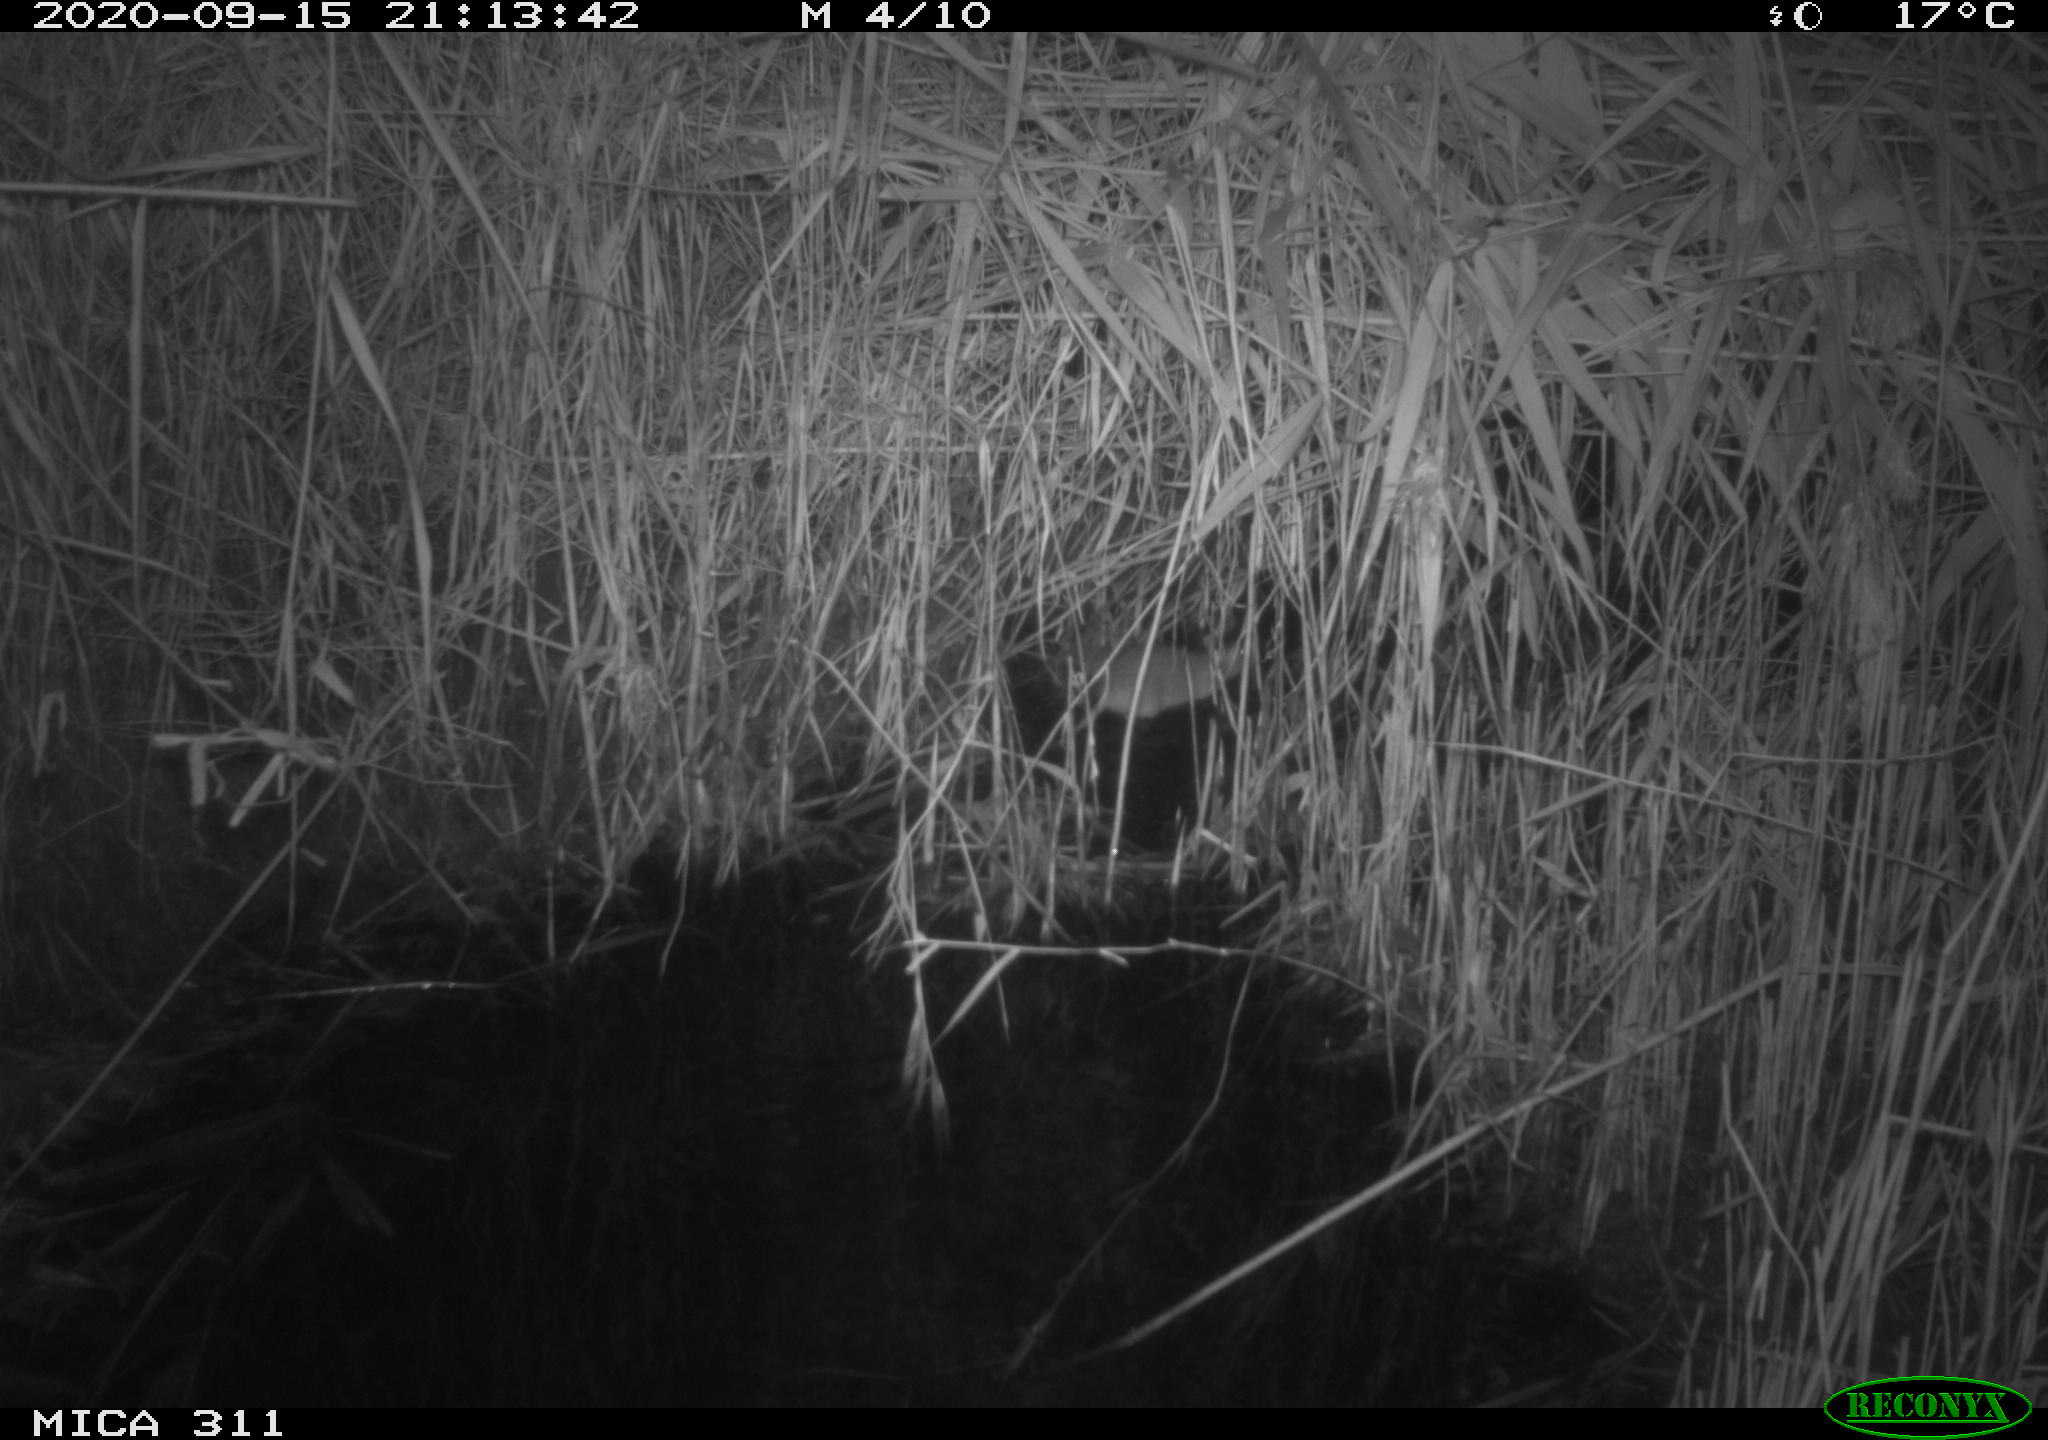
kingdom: Animalia
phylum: Chordata
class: Mammalia
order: Rodentia
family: Muridae
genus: Rattus
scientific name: Rattus norvegicus
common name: Brown rat
